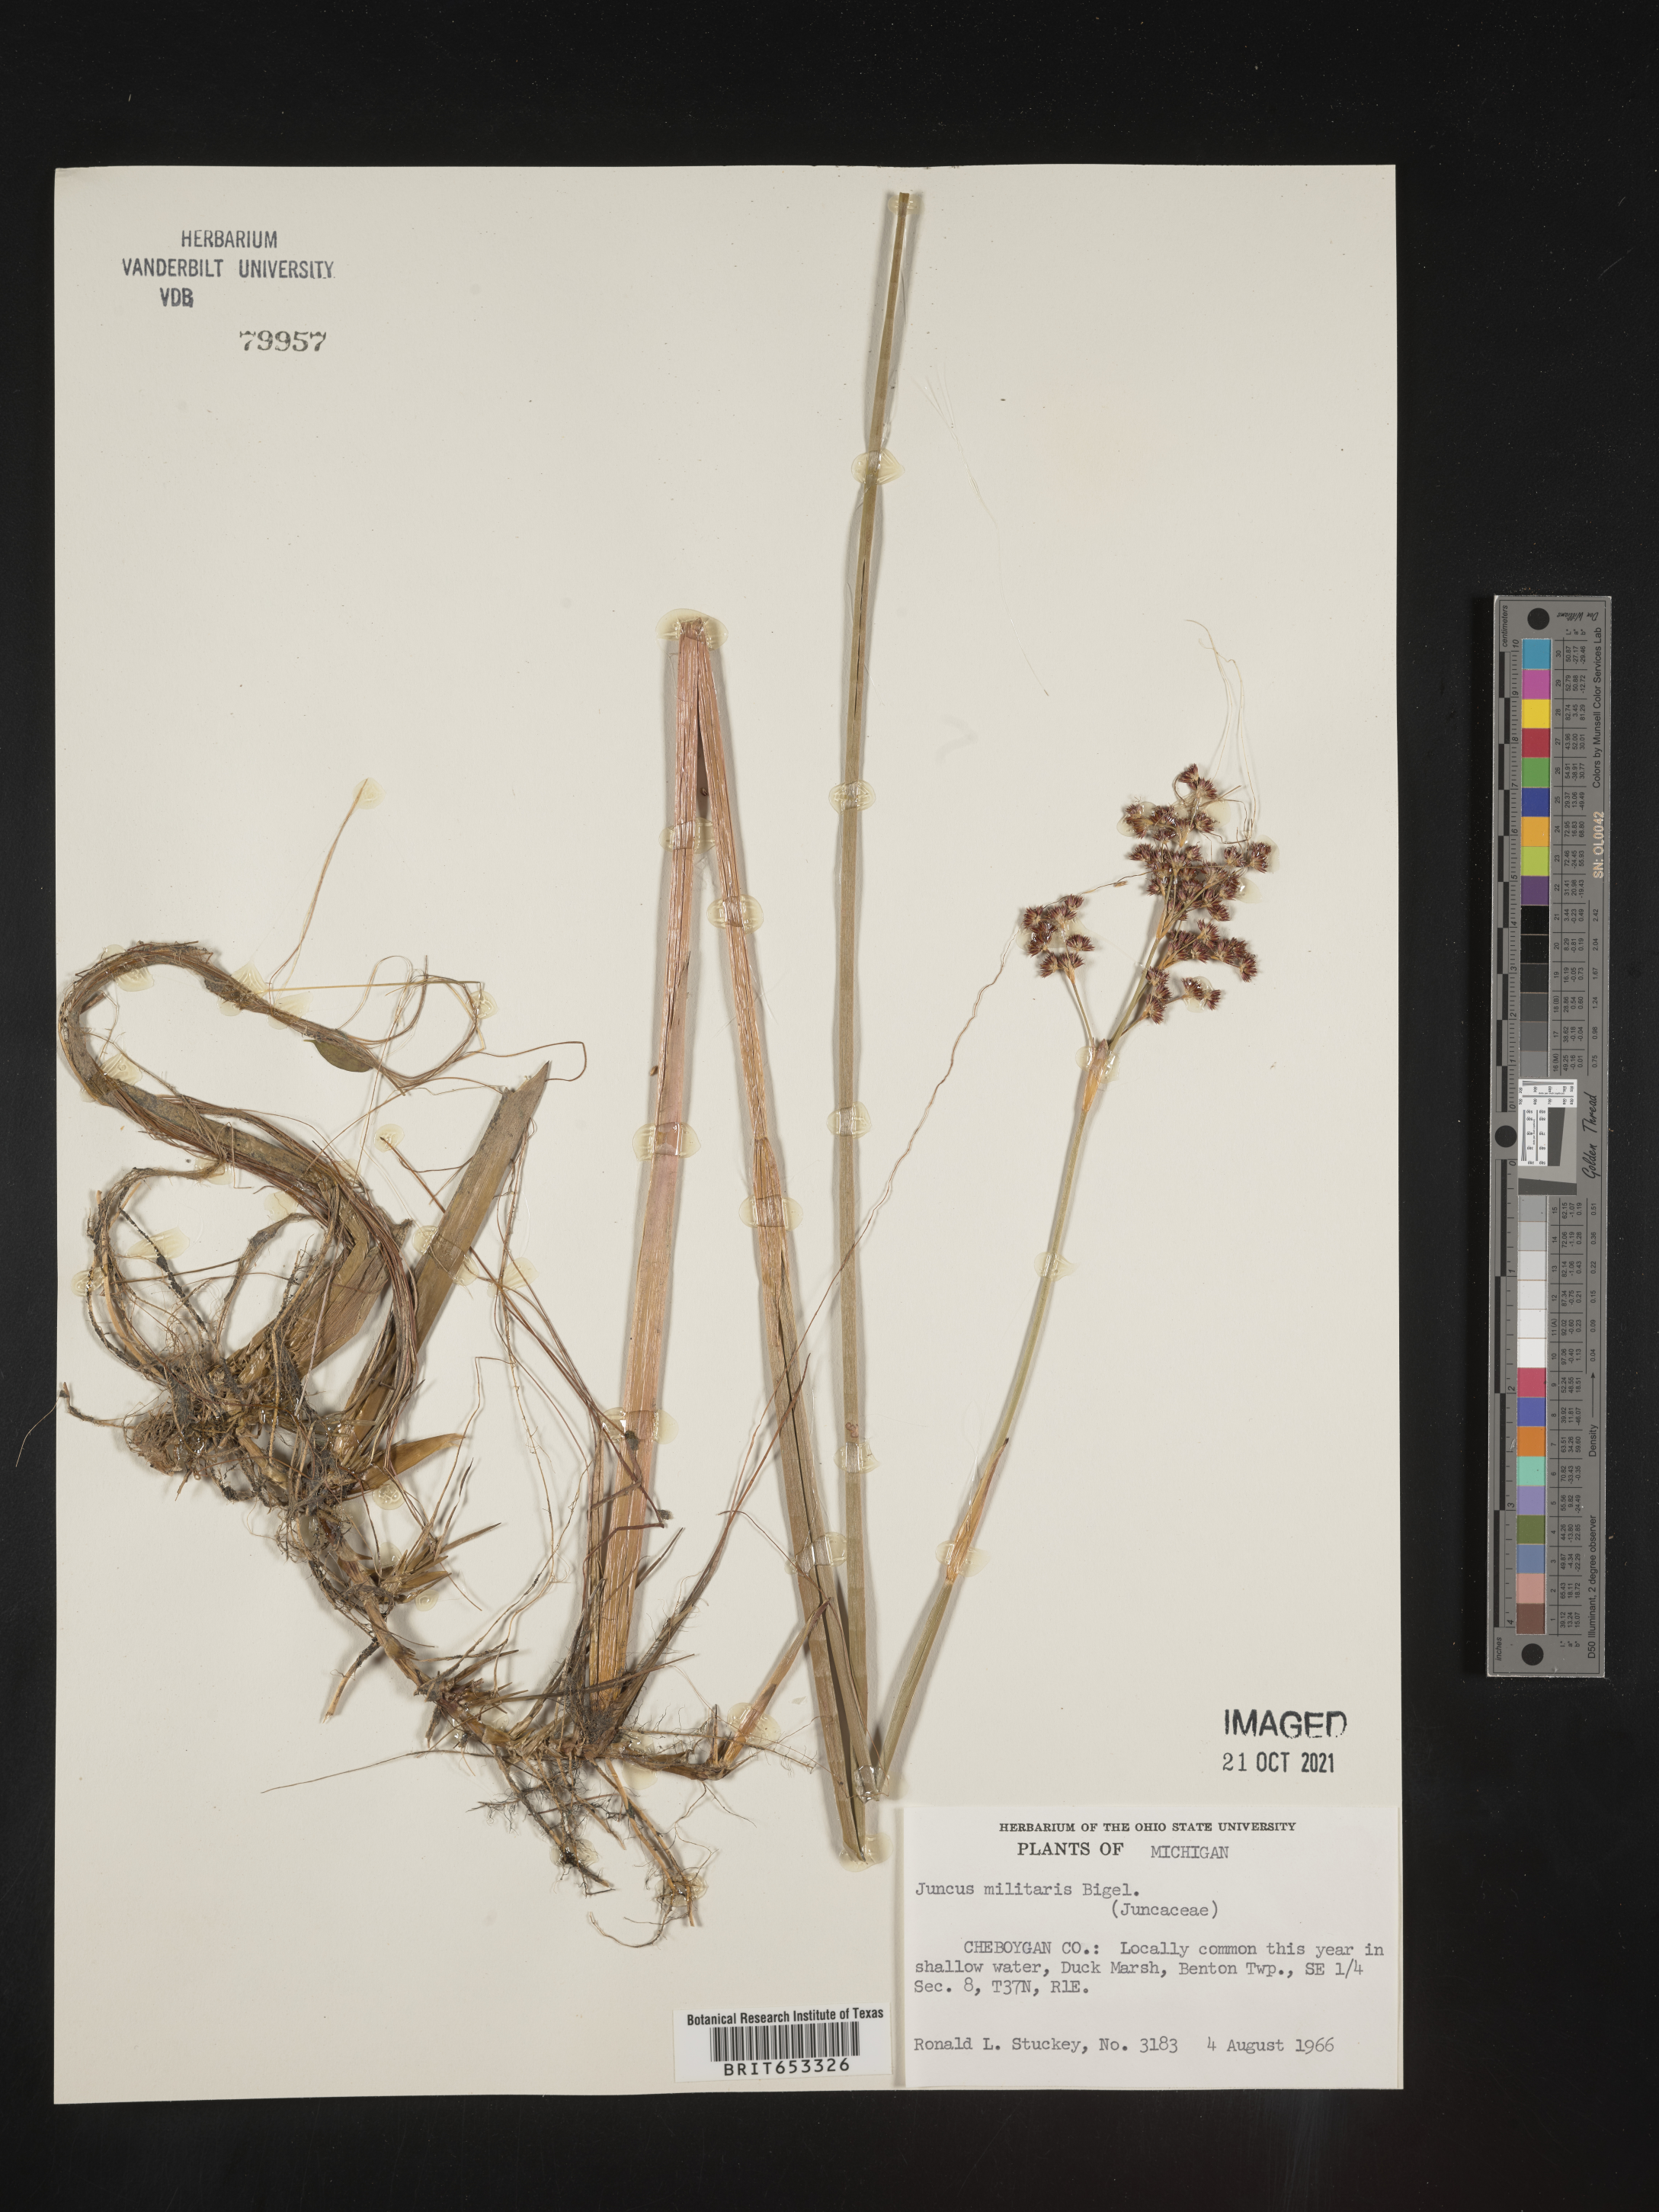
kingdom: Plantae
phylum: Tracheophyta
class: Liliopsida
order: Poales
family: Juncaceae
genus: Juncus
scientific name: Juncus militaris
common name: Bayonet rush
